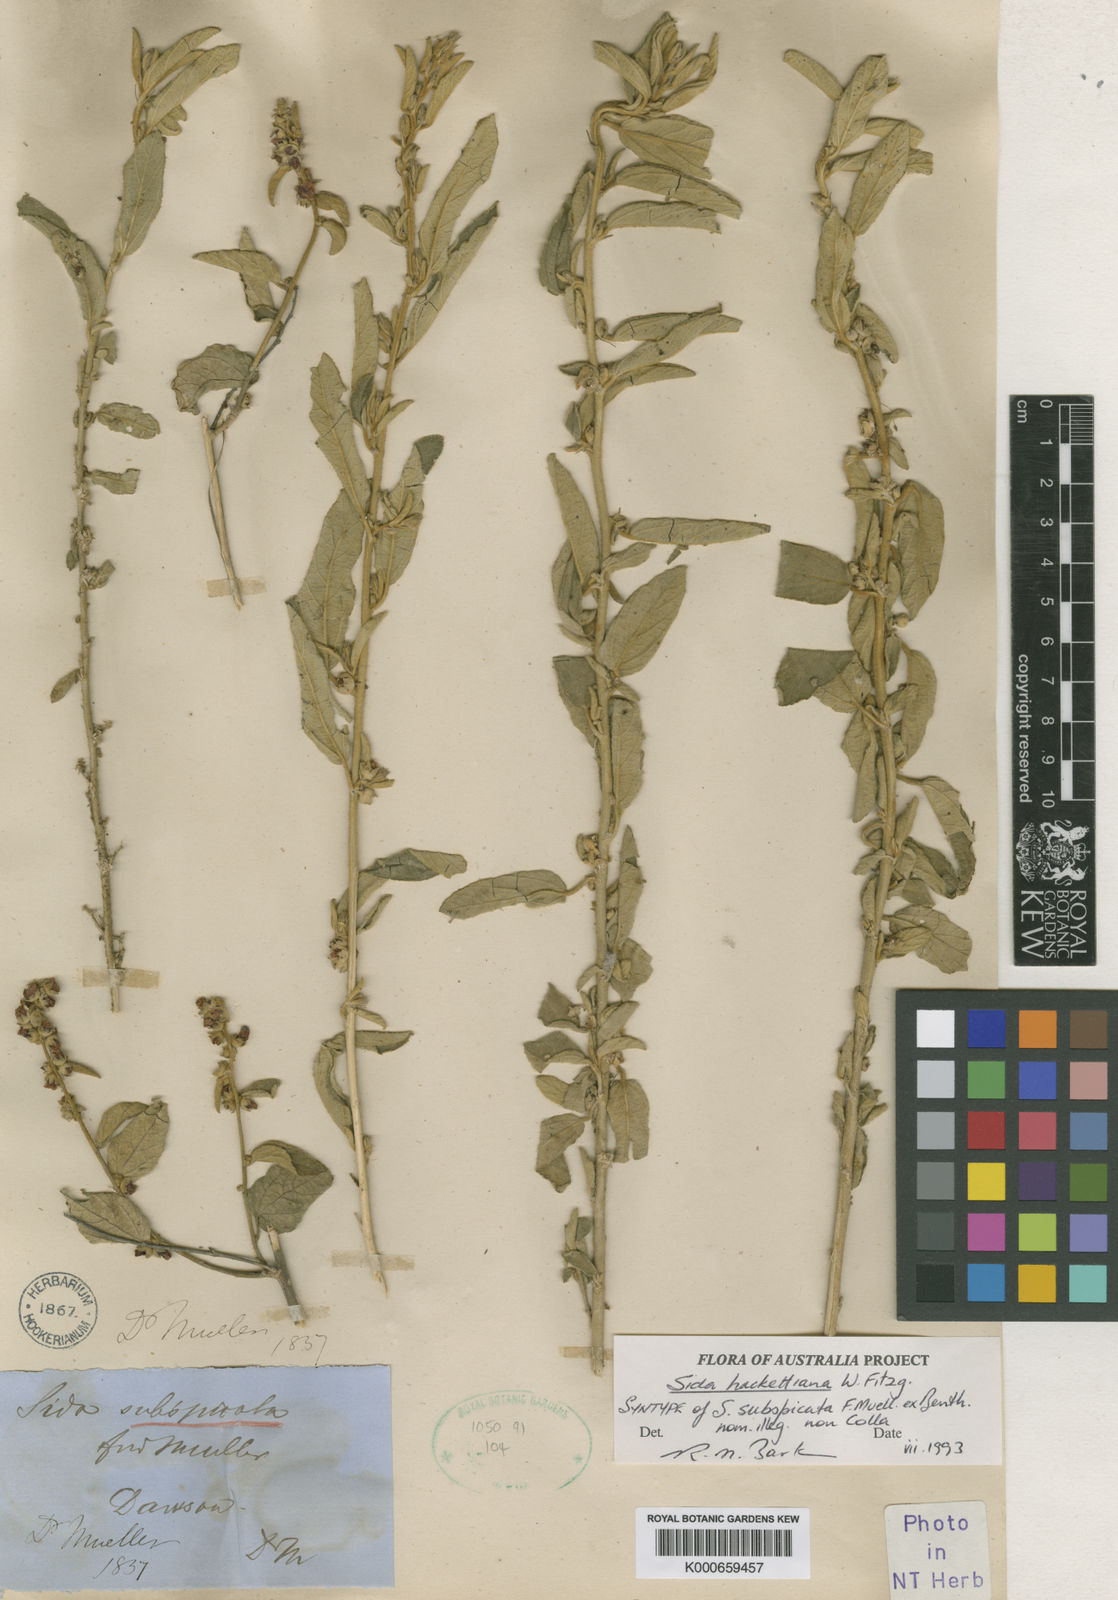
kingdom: Plantae
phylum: Tracheophyta
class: Magnoliopsida
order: Malvales
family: Malvaceae
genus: Sida
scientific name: Sida hackettiana
